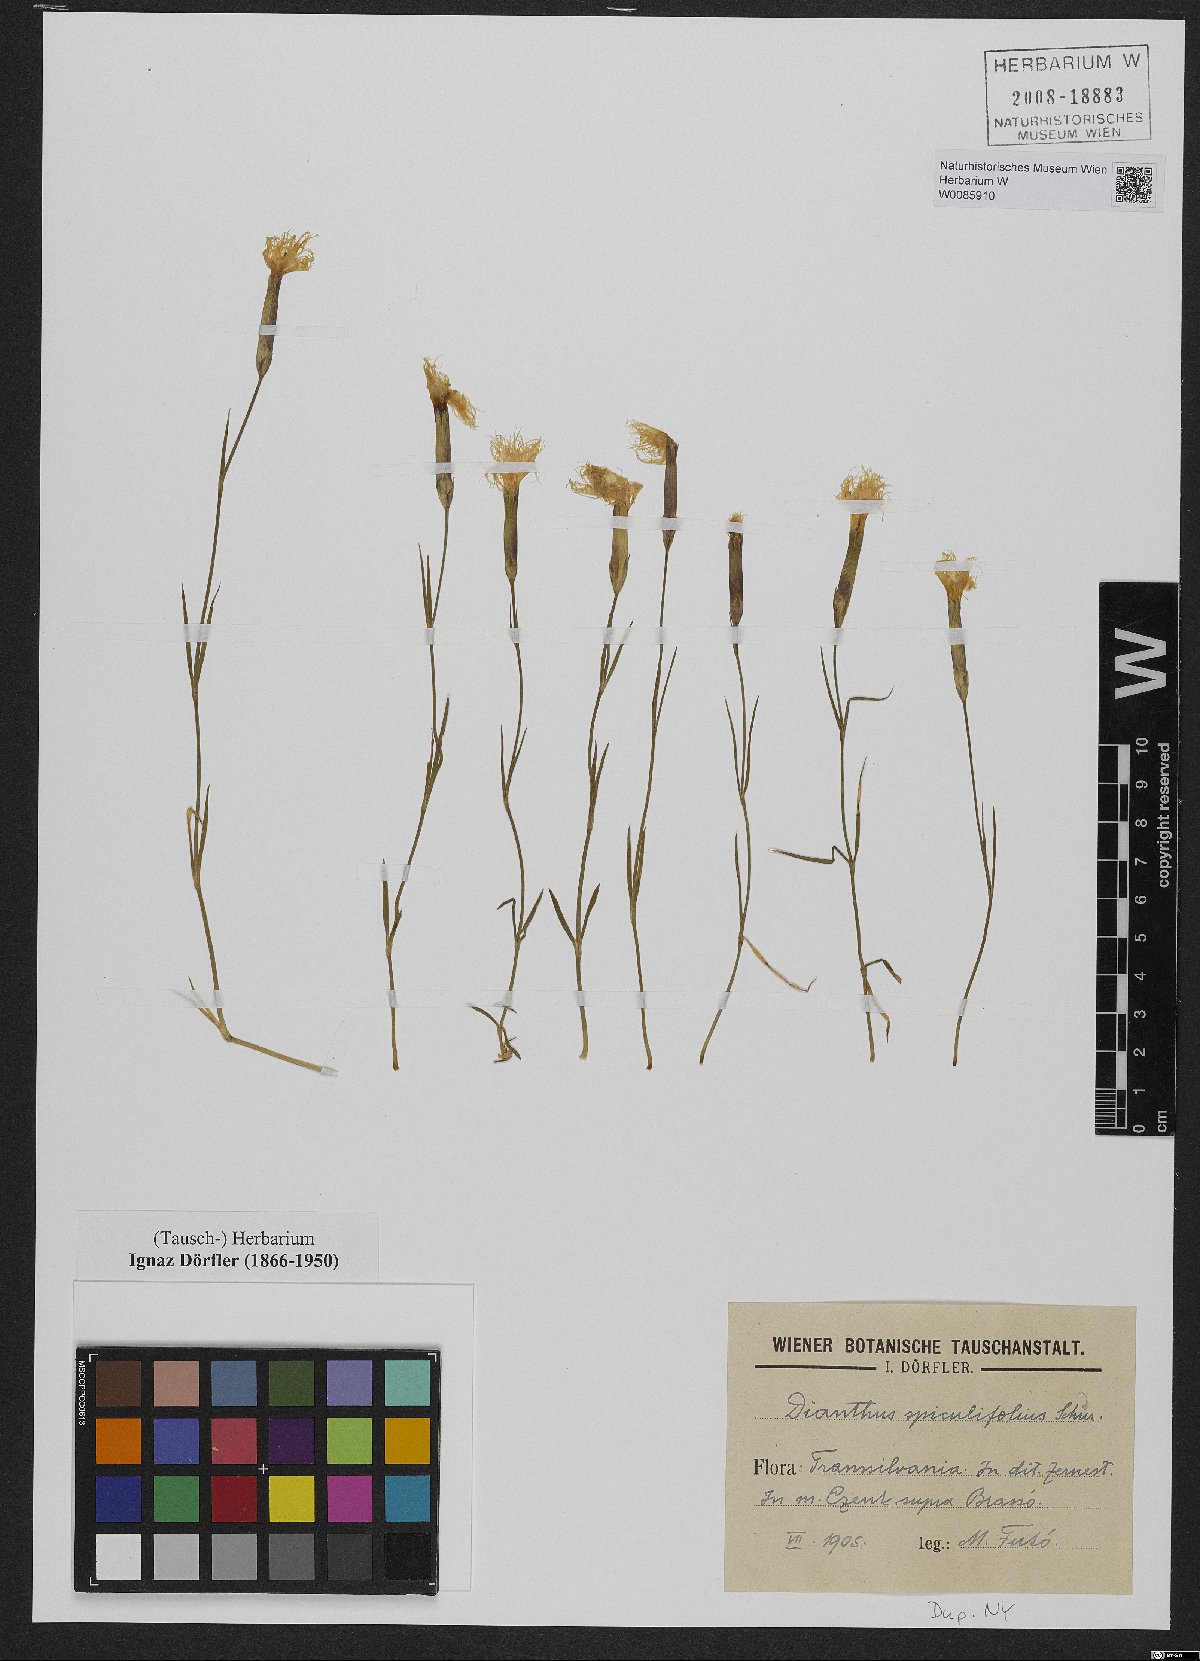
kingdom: Plantae
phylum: Tracheophyta
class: Magnoliopsida
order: Caryophyllales
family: Caryophyllaceae
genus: Dianthus
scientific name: Dianthus spiculifolius
